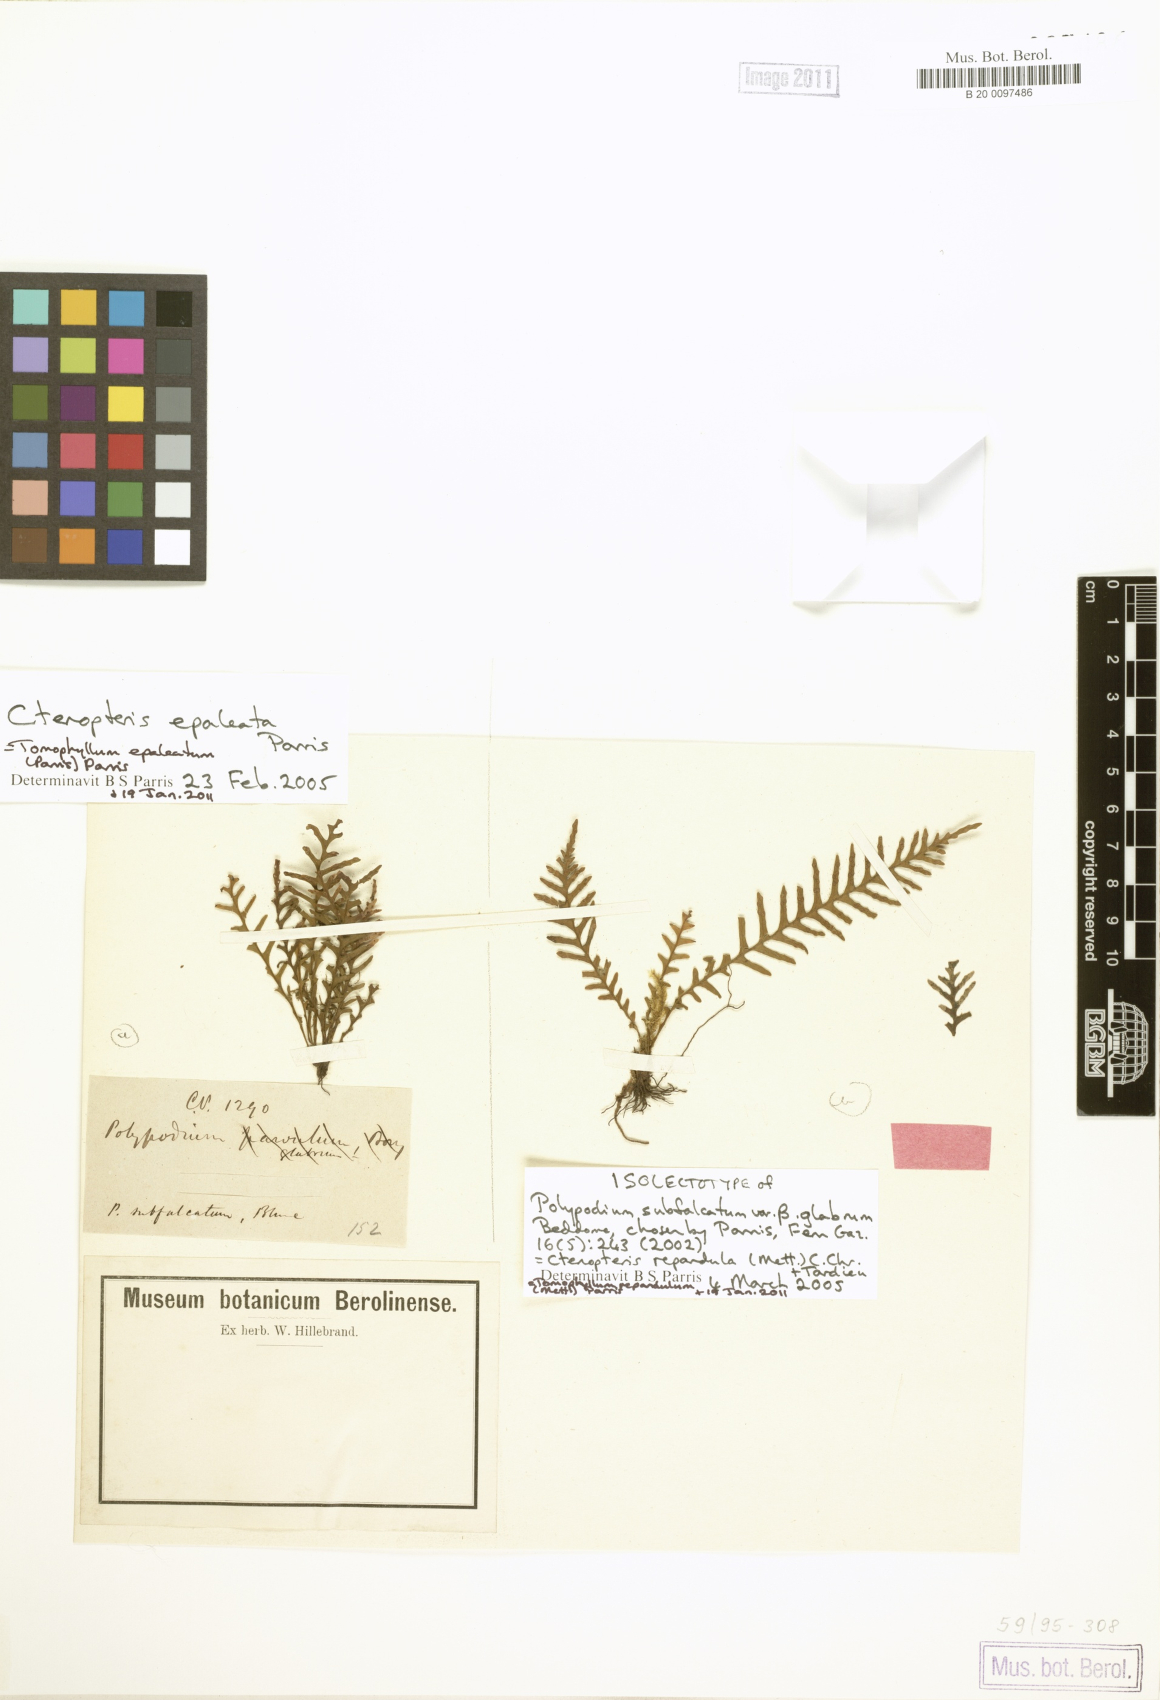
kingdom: Plantae
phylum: Tracheophyta
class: Polypodiopsida
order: Polypodiales
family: Polypodiaceae
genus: Tomophyllum
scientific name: Tomophyllum repandulum
